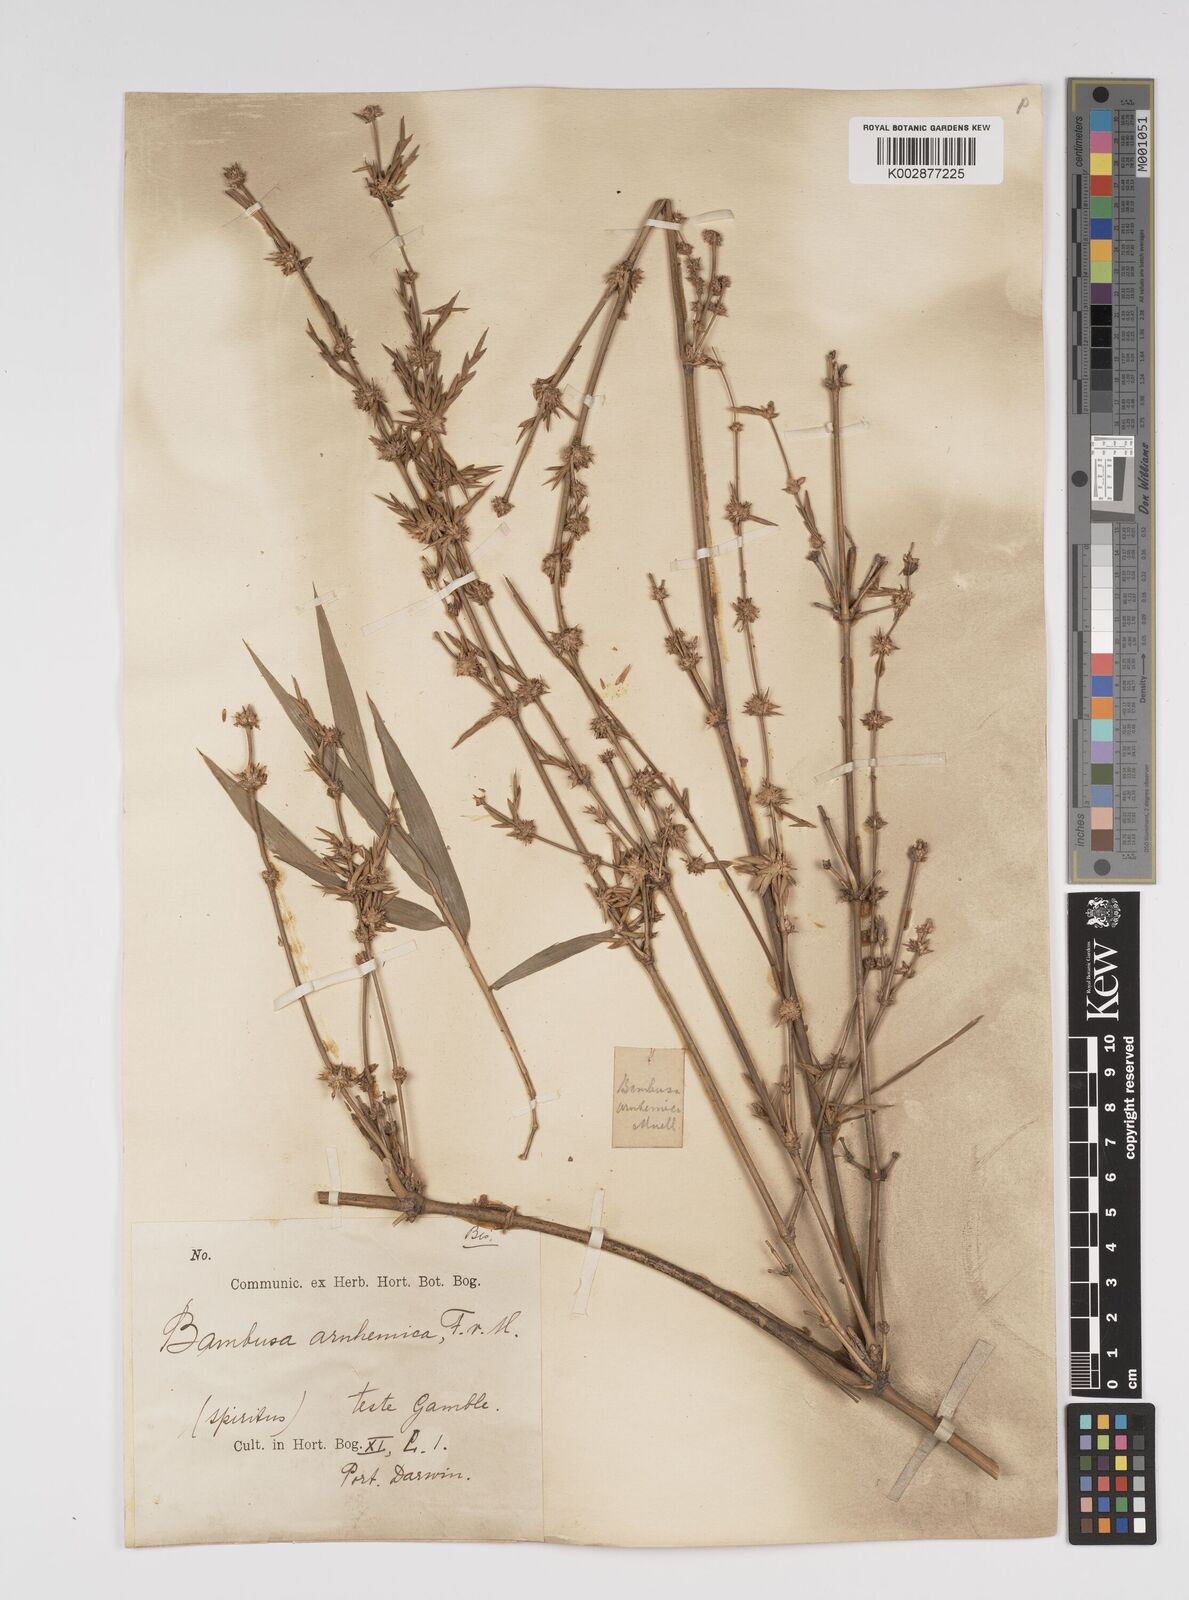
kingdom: Plantae
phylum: Tracheophyta
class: Liliopsida
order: Poales
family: Poaceae
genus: Bambusa
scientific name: Bambusa arnhemica
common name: Top-end bamboo
